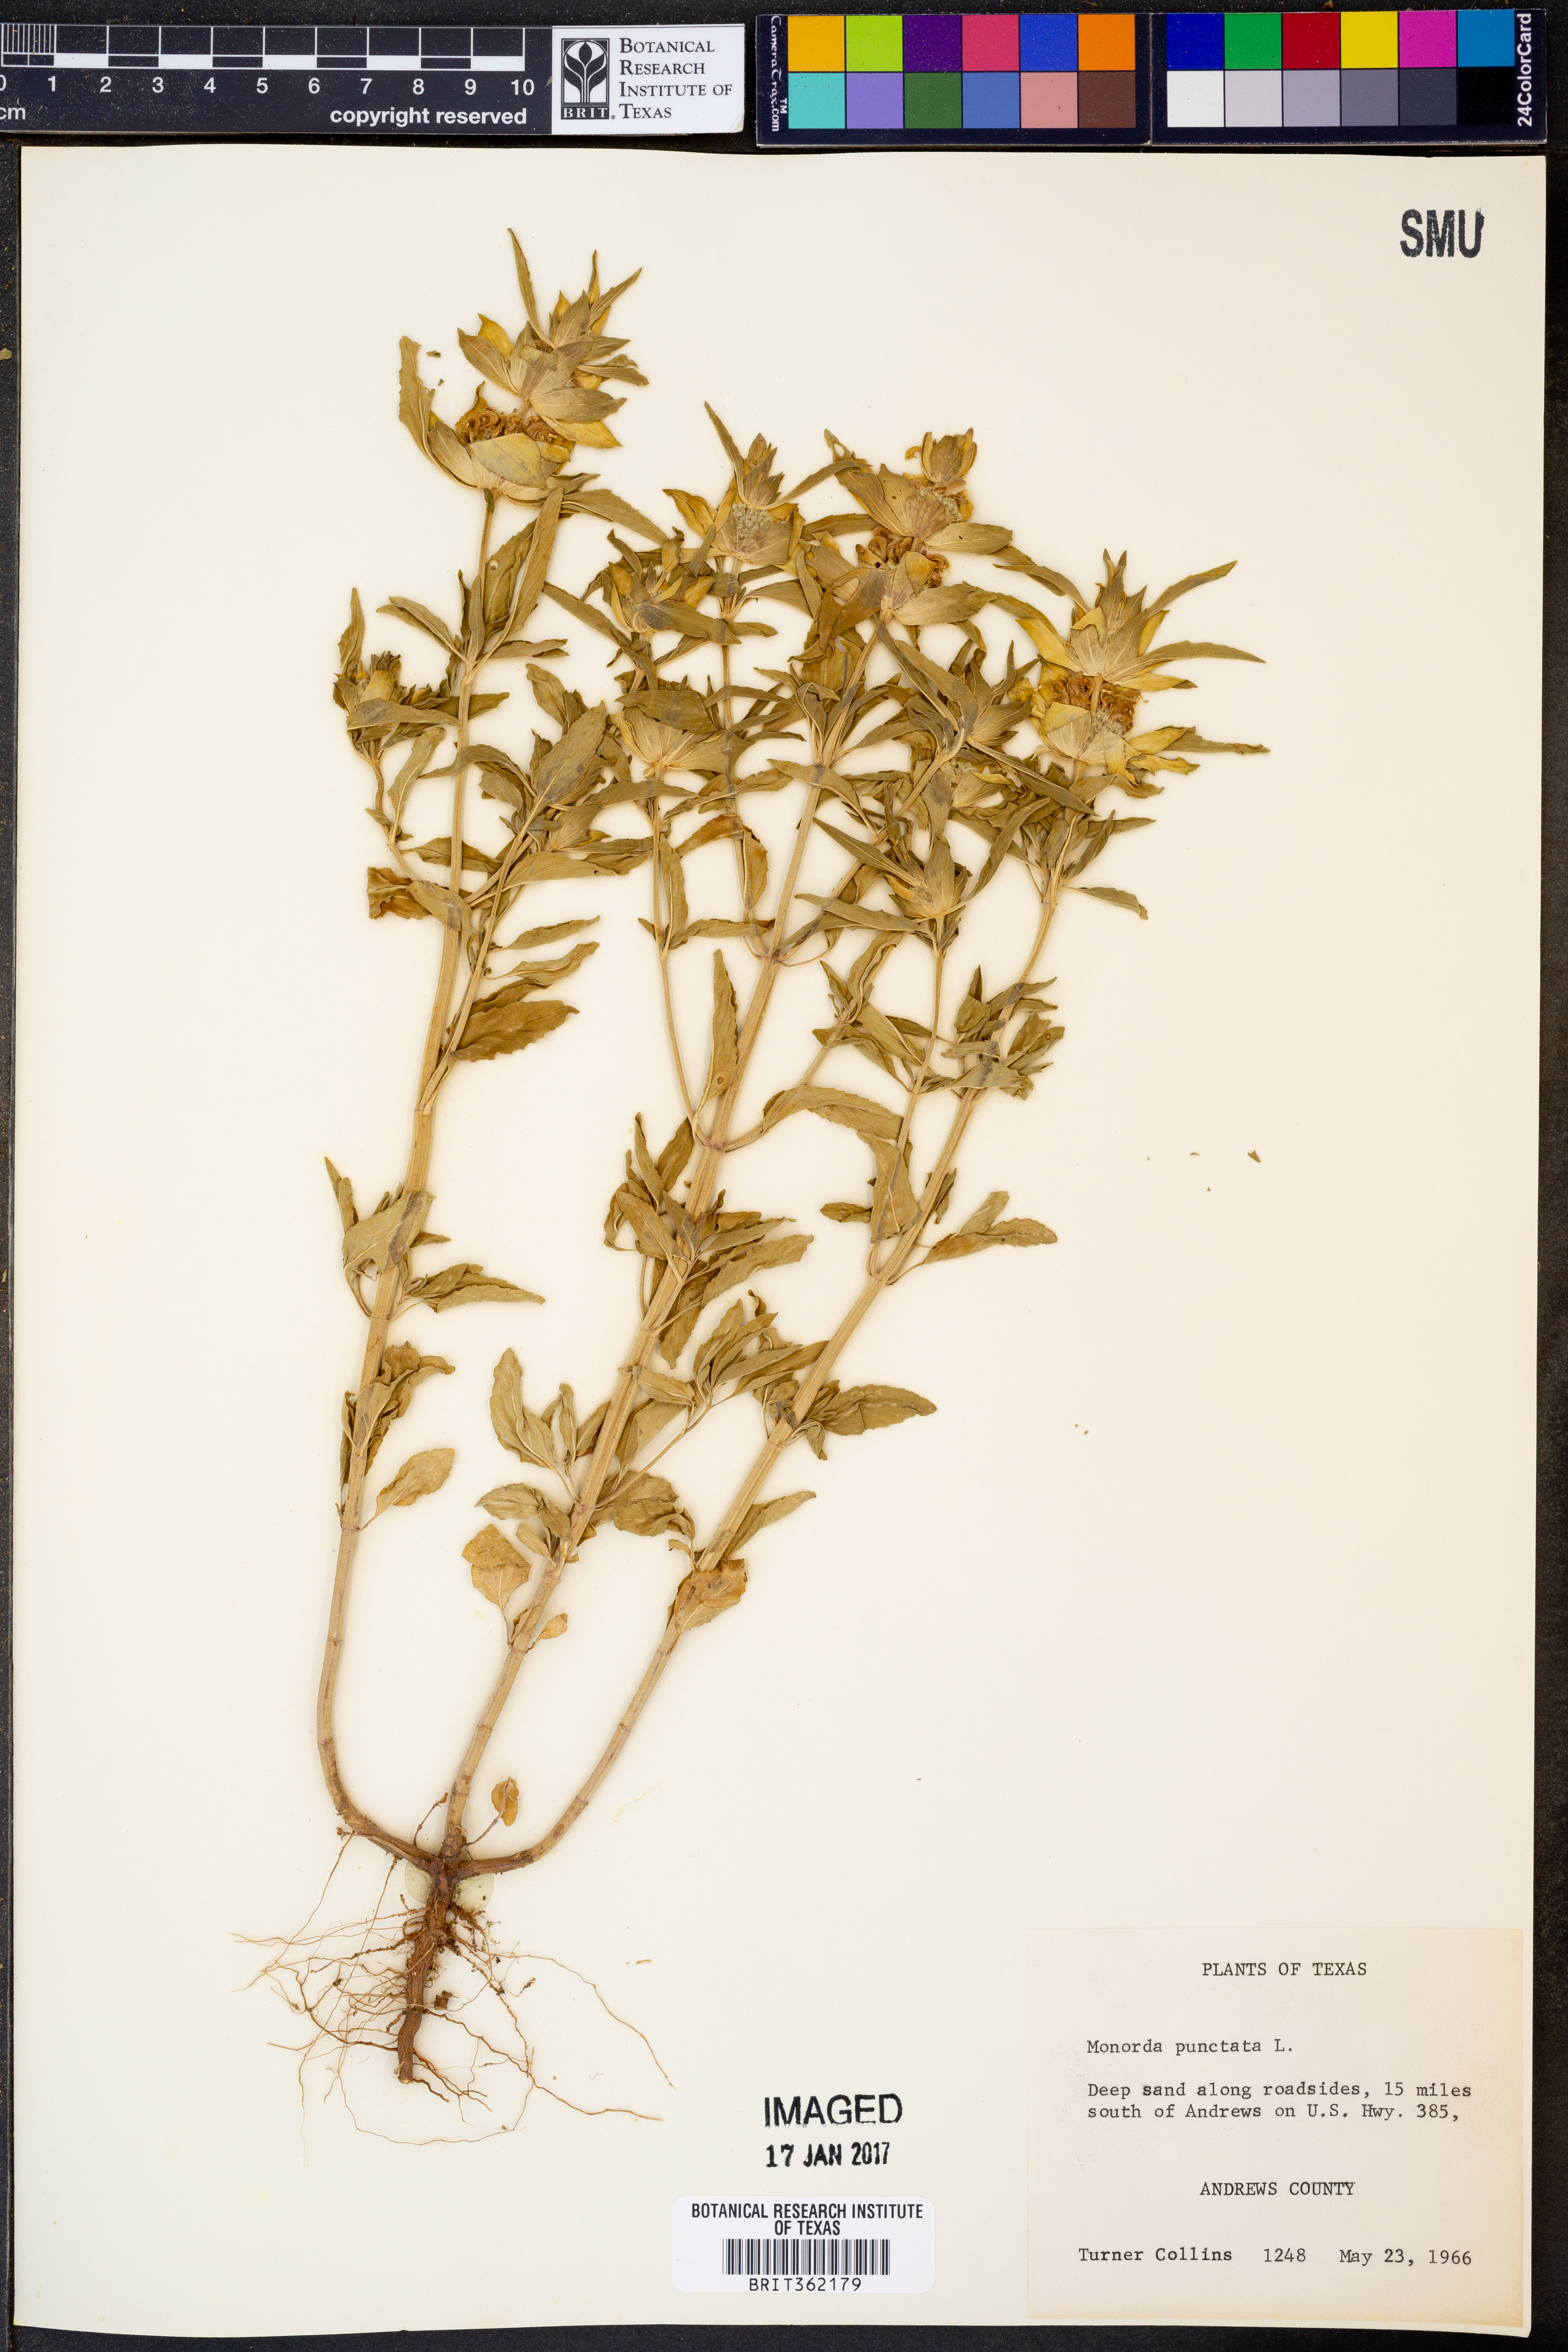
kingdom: Plantae
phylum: Tracheophyta
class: Magnoliopsida
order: Lamiales
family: Lamiaceae
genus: Monarda
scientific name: Monarda punctata
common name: Dotted monarda
